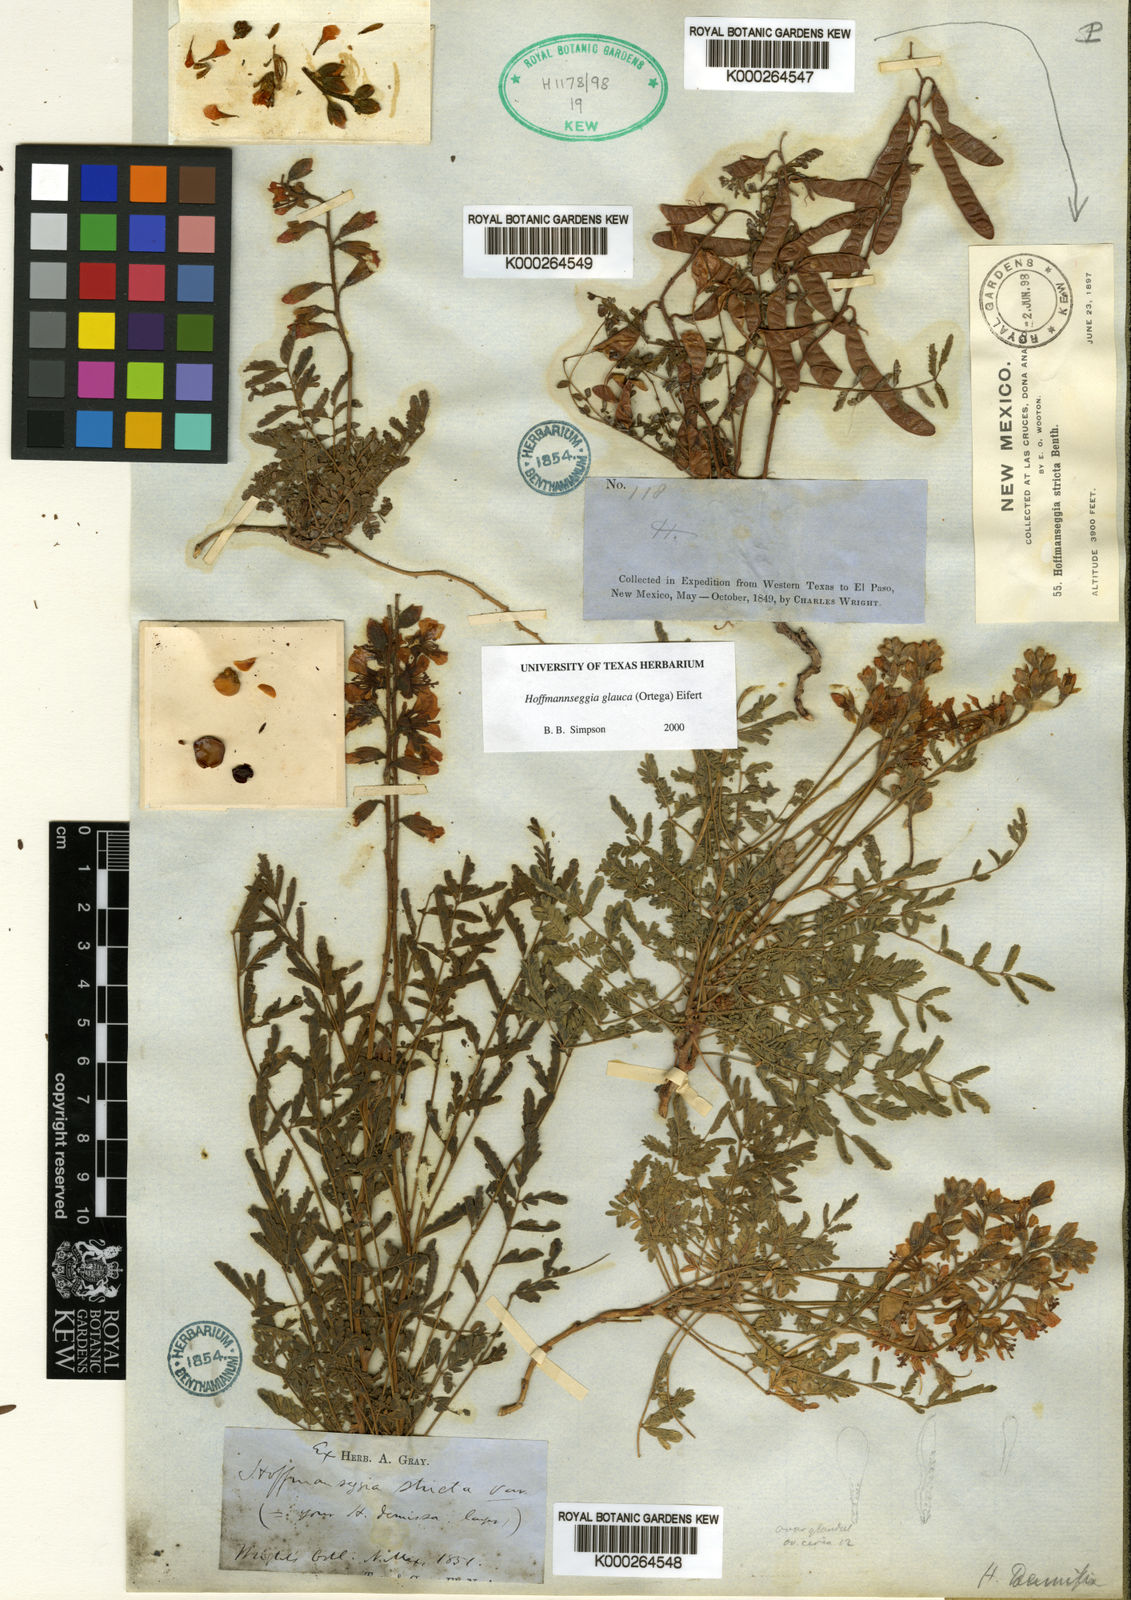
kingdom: Plantae
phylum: Tracheophyta
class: Magnoliopsida
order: Fabales
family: Fabaceae
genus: Hoffmannseggia
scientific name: Hoffmannseggia glauca
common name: Pignut
